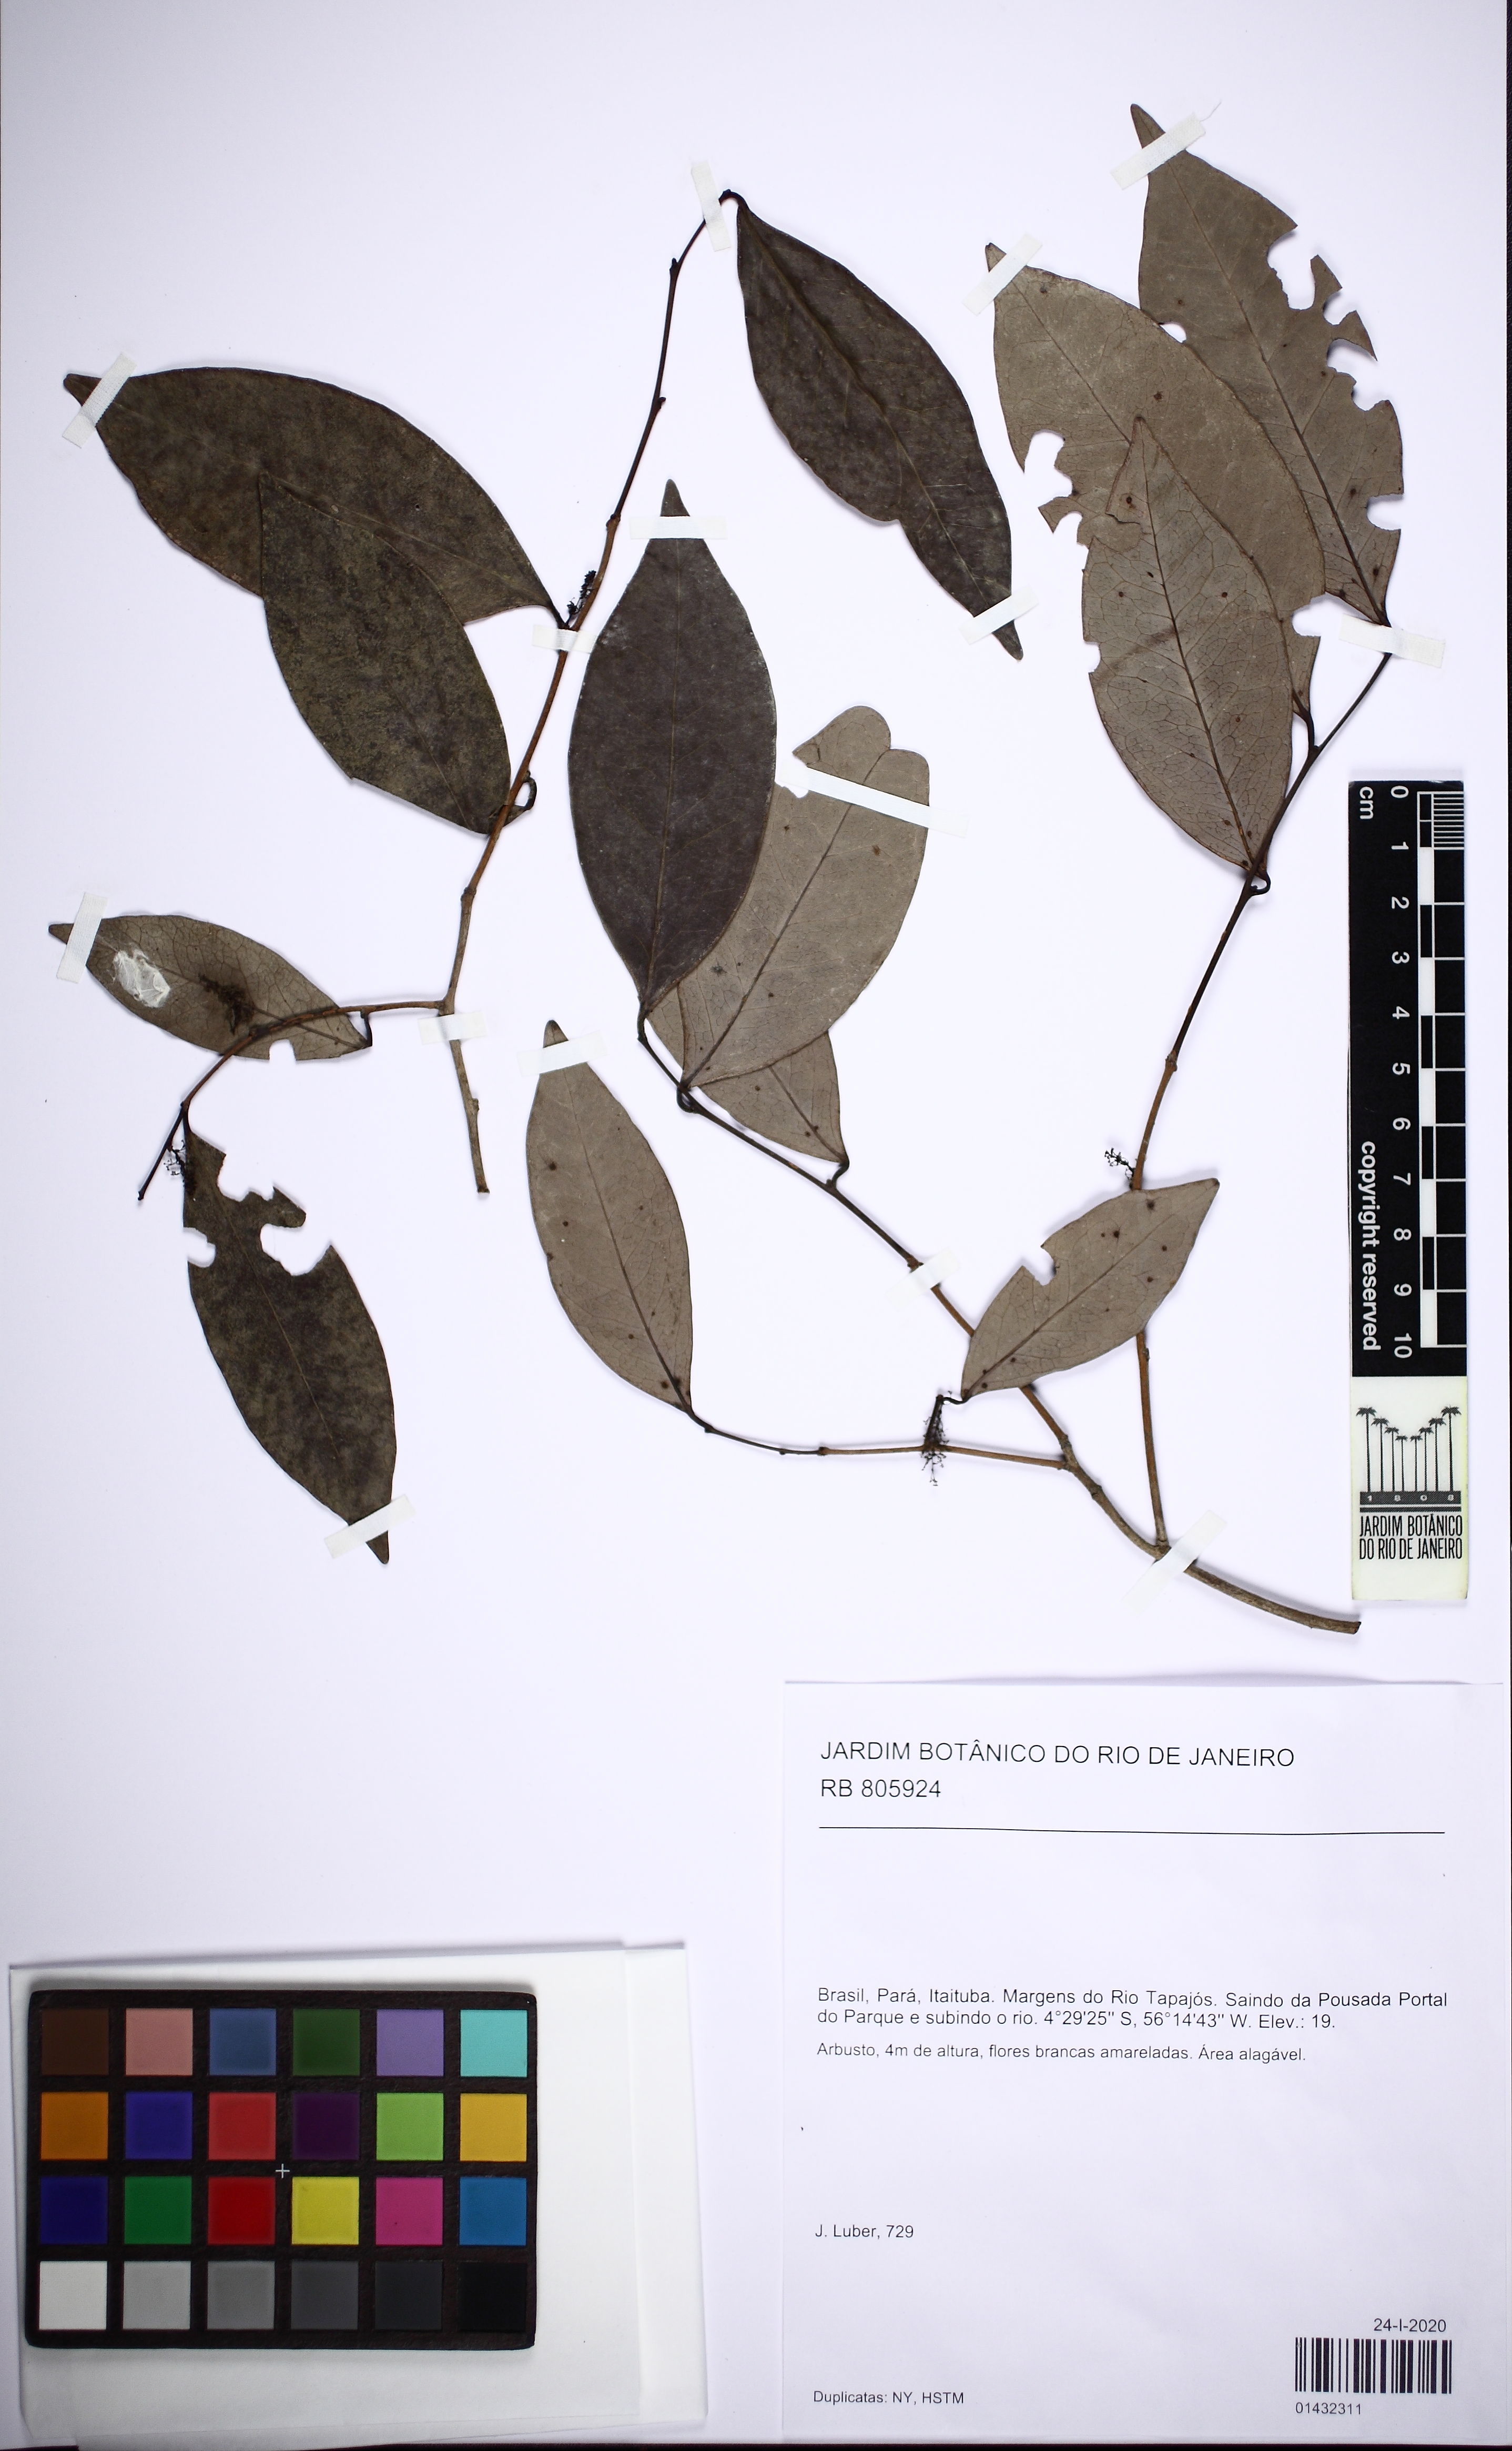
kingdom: Plantae
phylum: Tracheophyta
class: Magnoliopsida
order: Malpighiales
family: Euphorbiaceae
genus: Gymnanthes
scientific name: Gymnanthes hypoleuca
